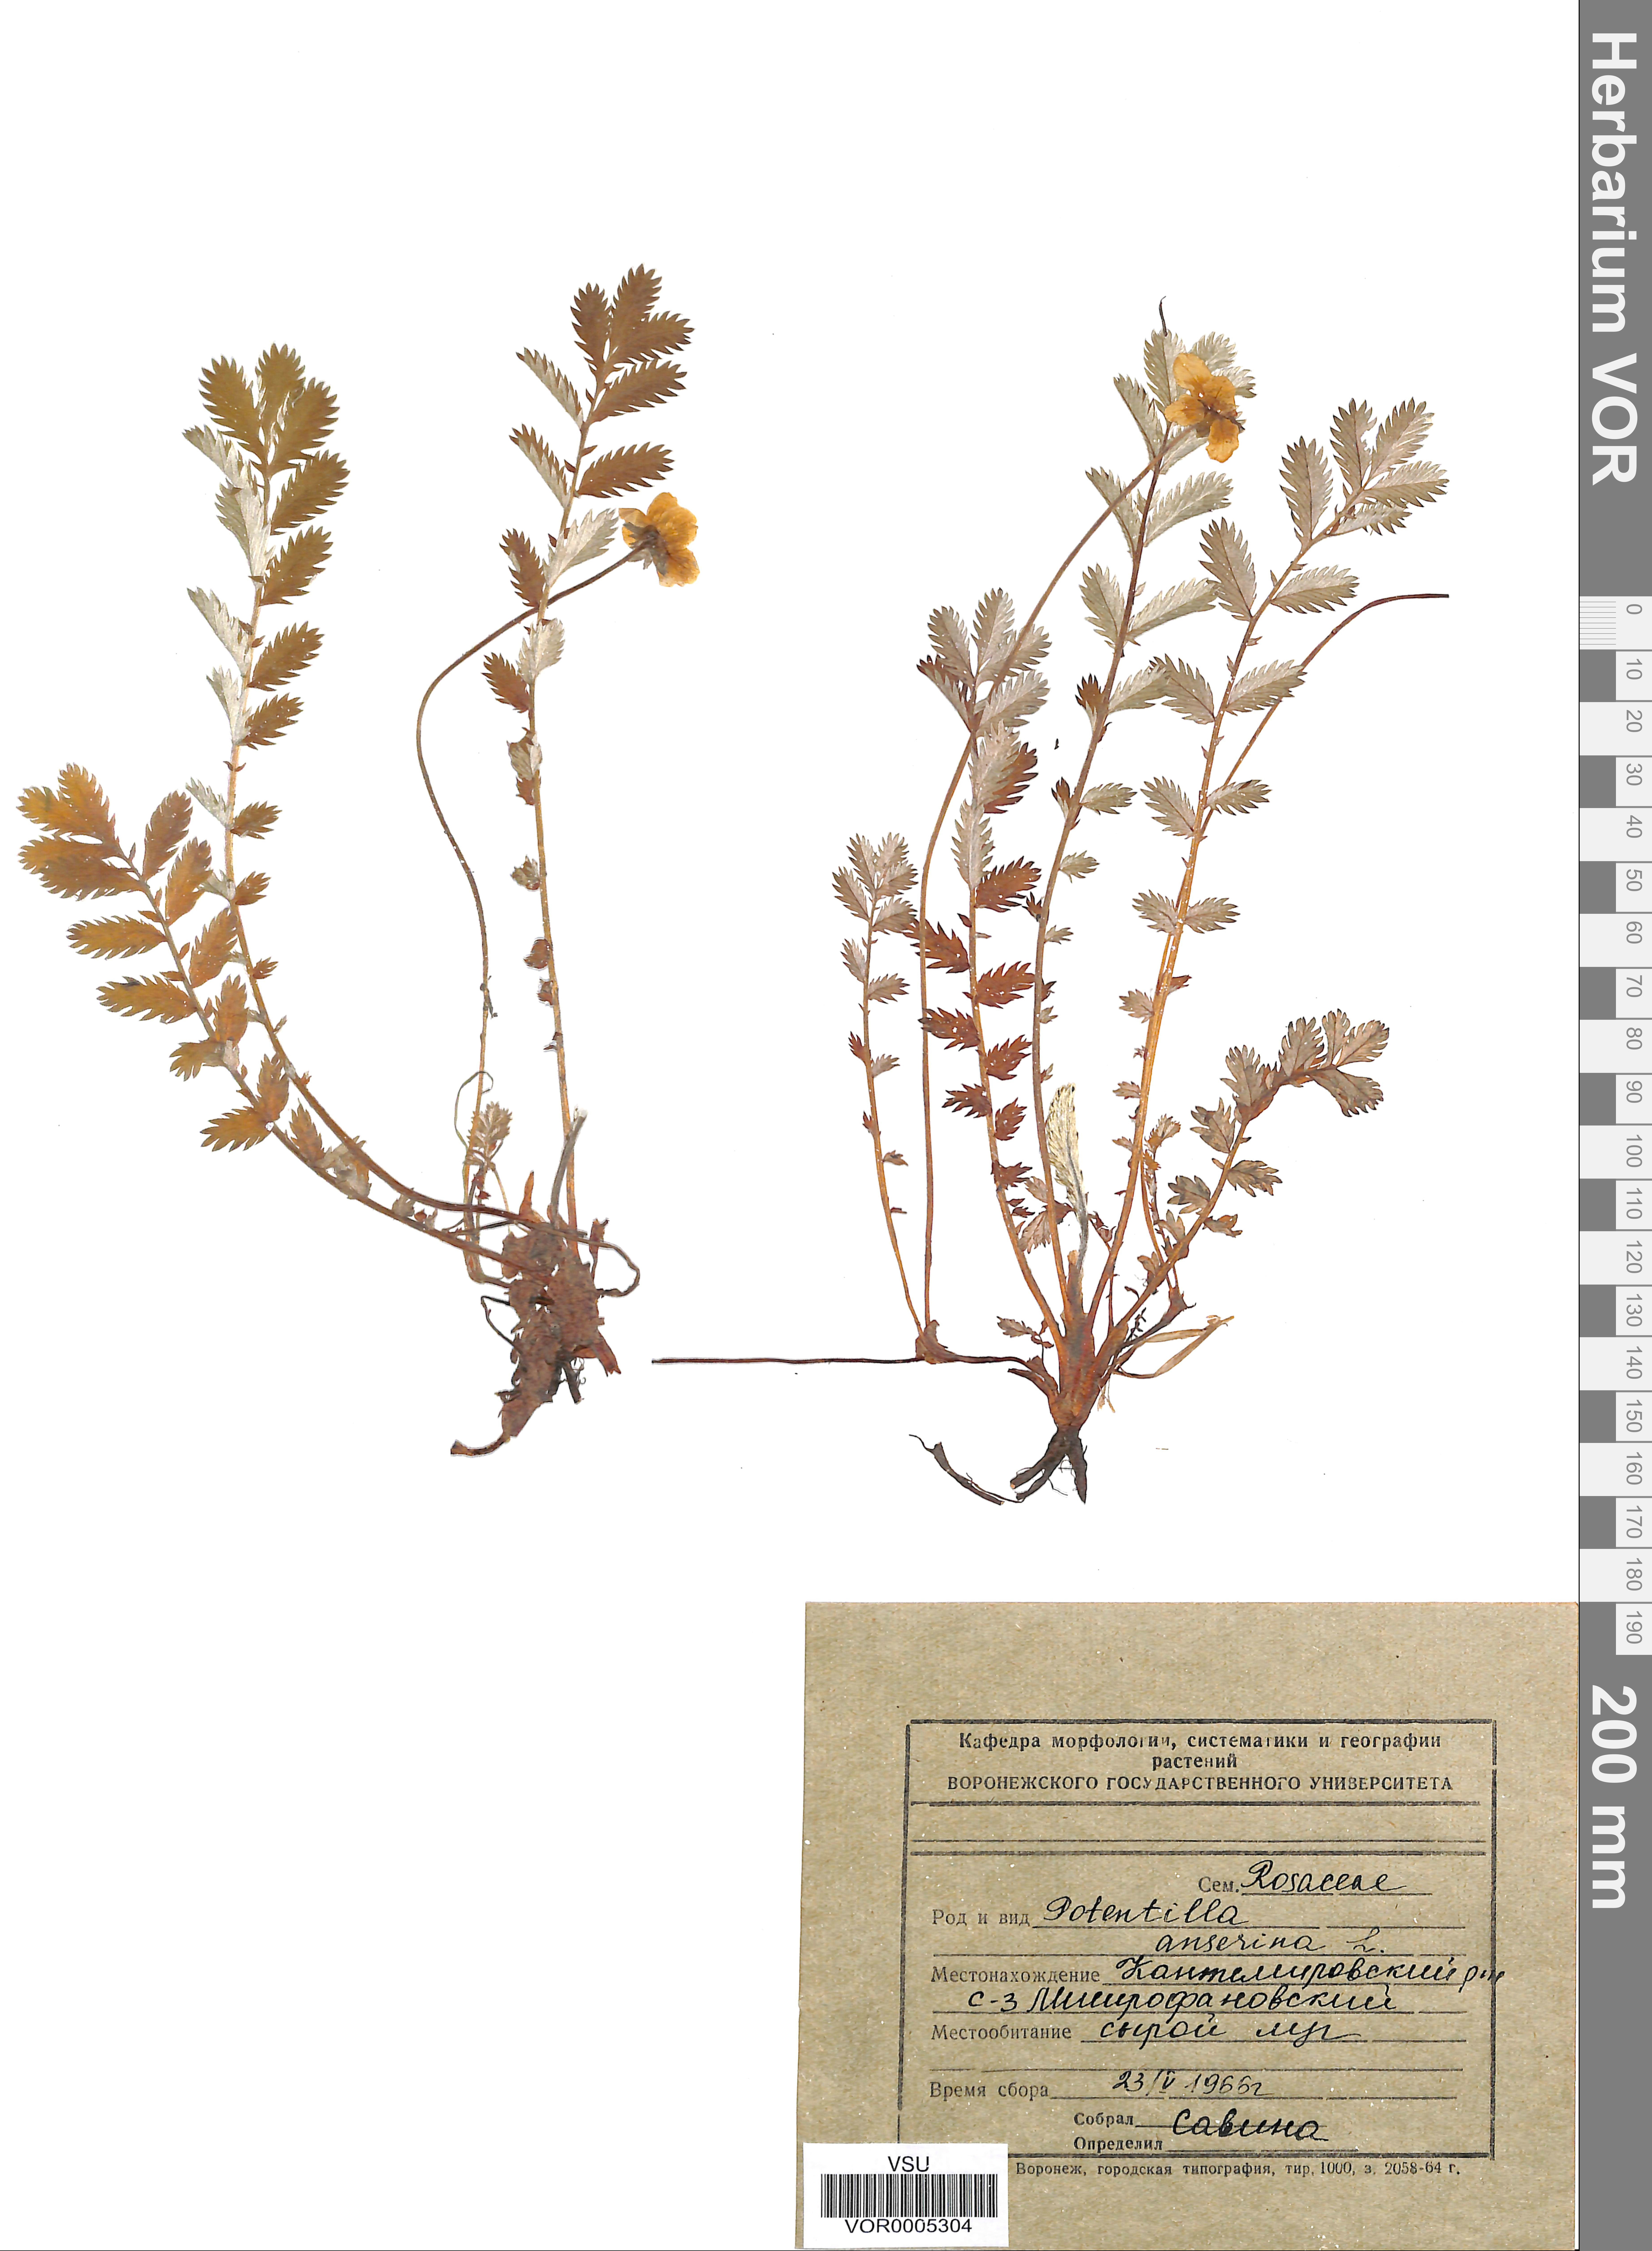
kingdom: Plantae
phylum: Tracheophyta
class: Magnoliopsida
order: Rosales
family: Rosaceae
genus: Argentina
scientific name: Argentina anserina
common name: Common silverweed
